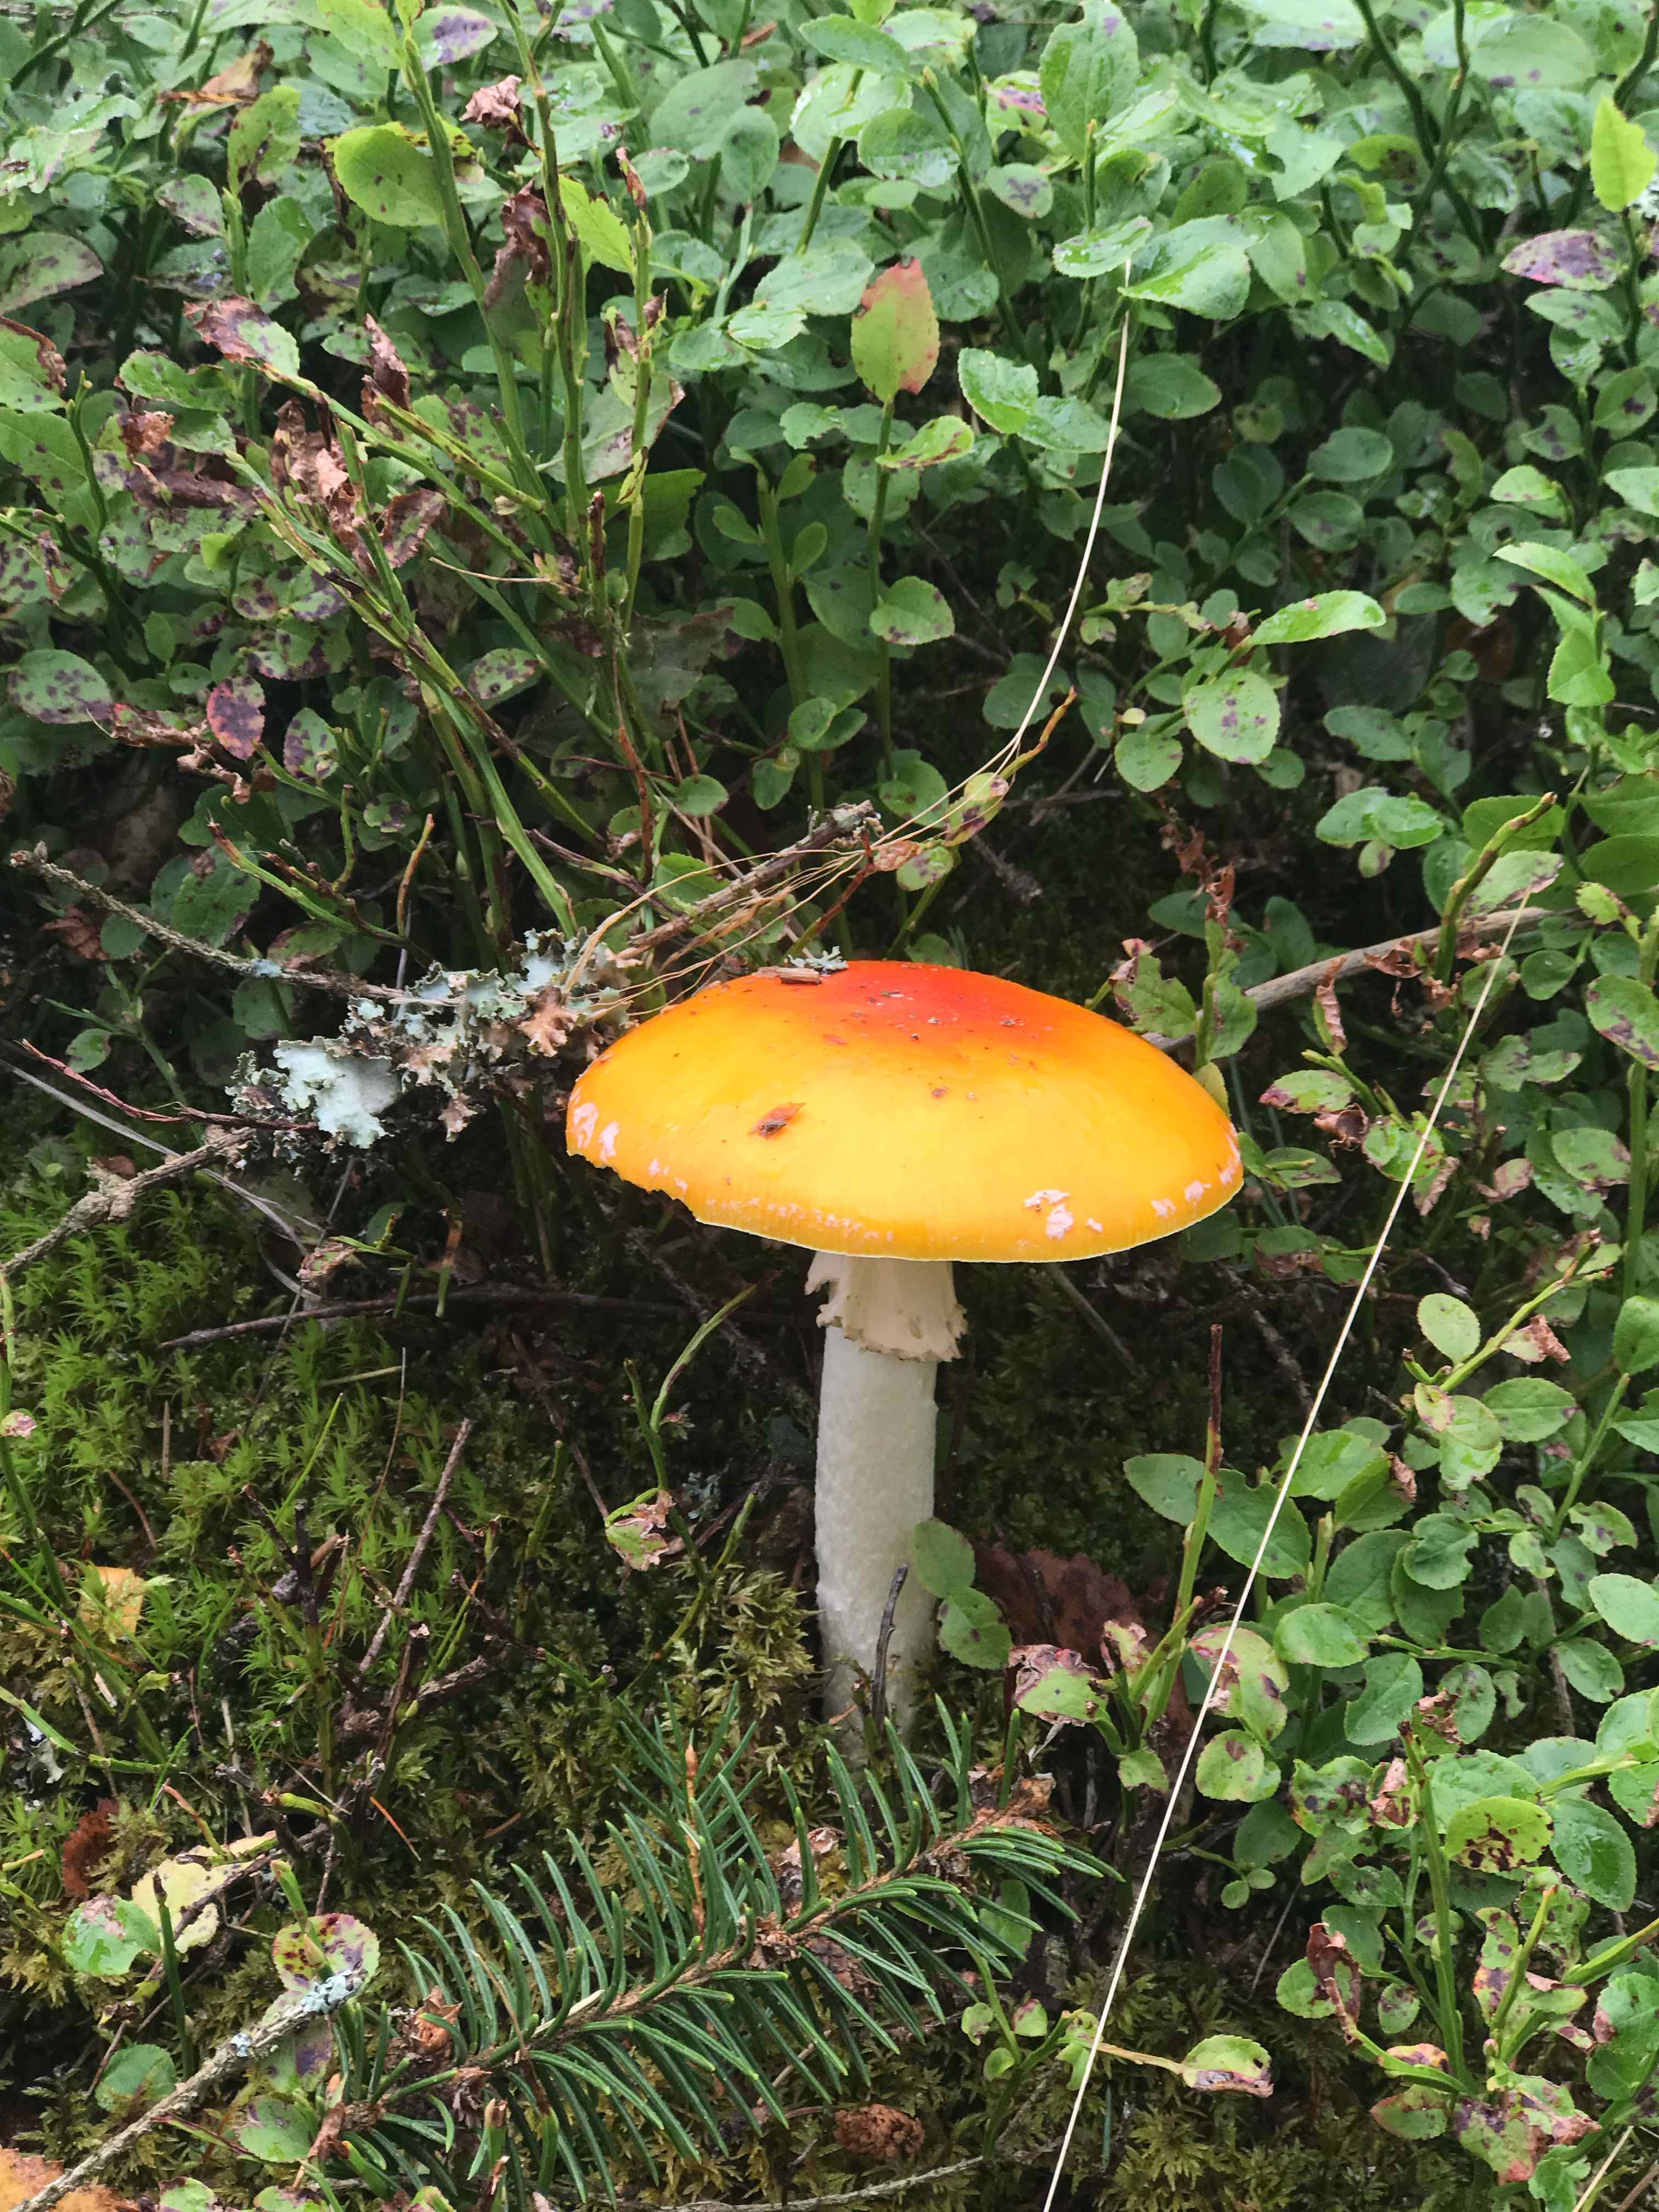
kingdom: Fungi
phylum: Basidiomycota
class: Agaricomycetes
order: Agaricales
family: Amanitaceae
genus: Amanita
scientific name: Amanita muscaria
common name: rød fluesvamp
